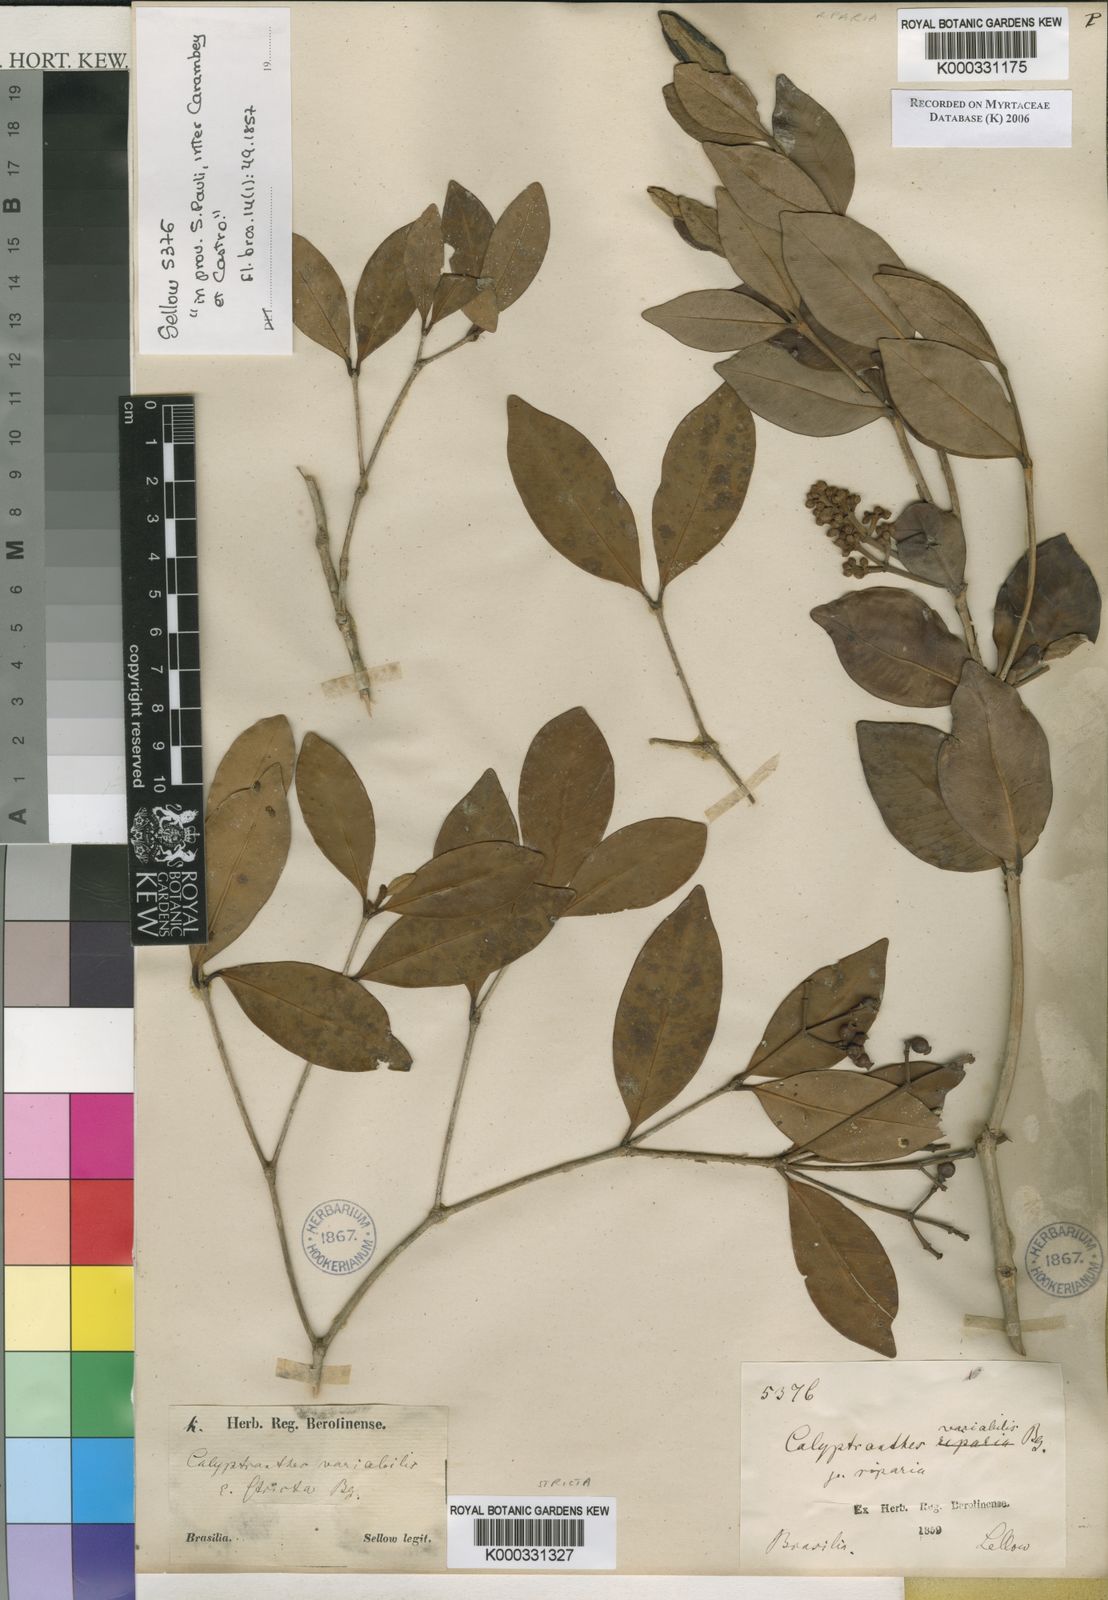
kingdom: Plantae
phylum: Tracheophyta
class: Magnoliopsida
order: Myrtales
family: Myrtaceae
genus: Myrcia
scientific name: Myrcia cruciflora
